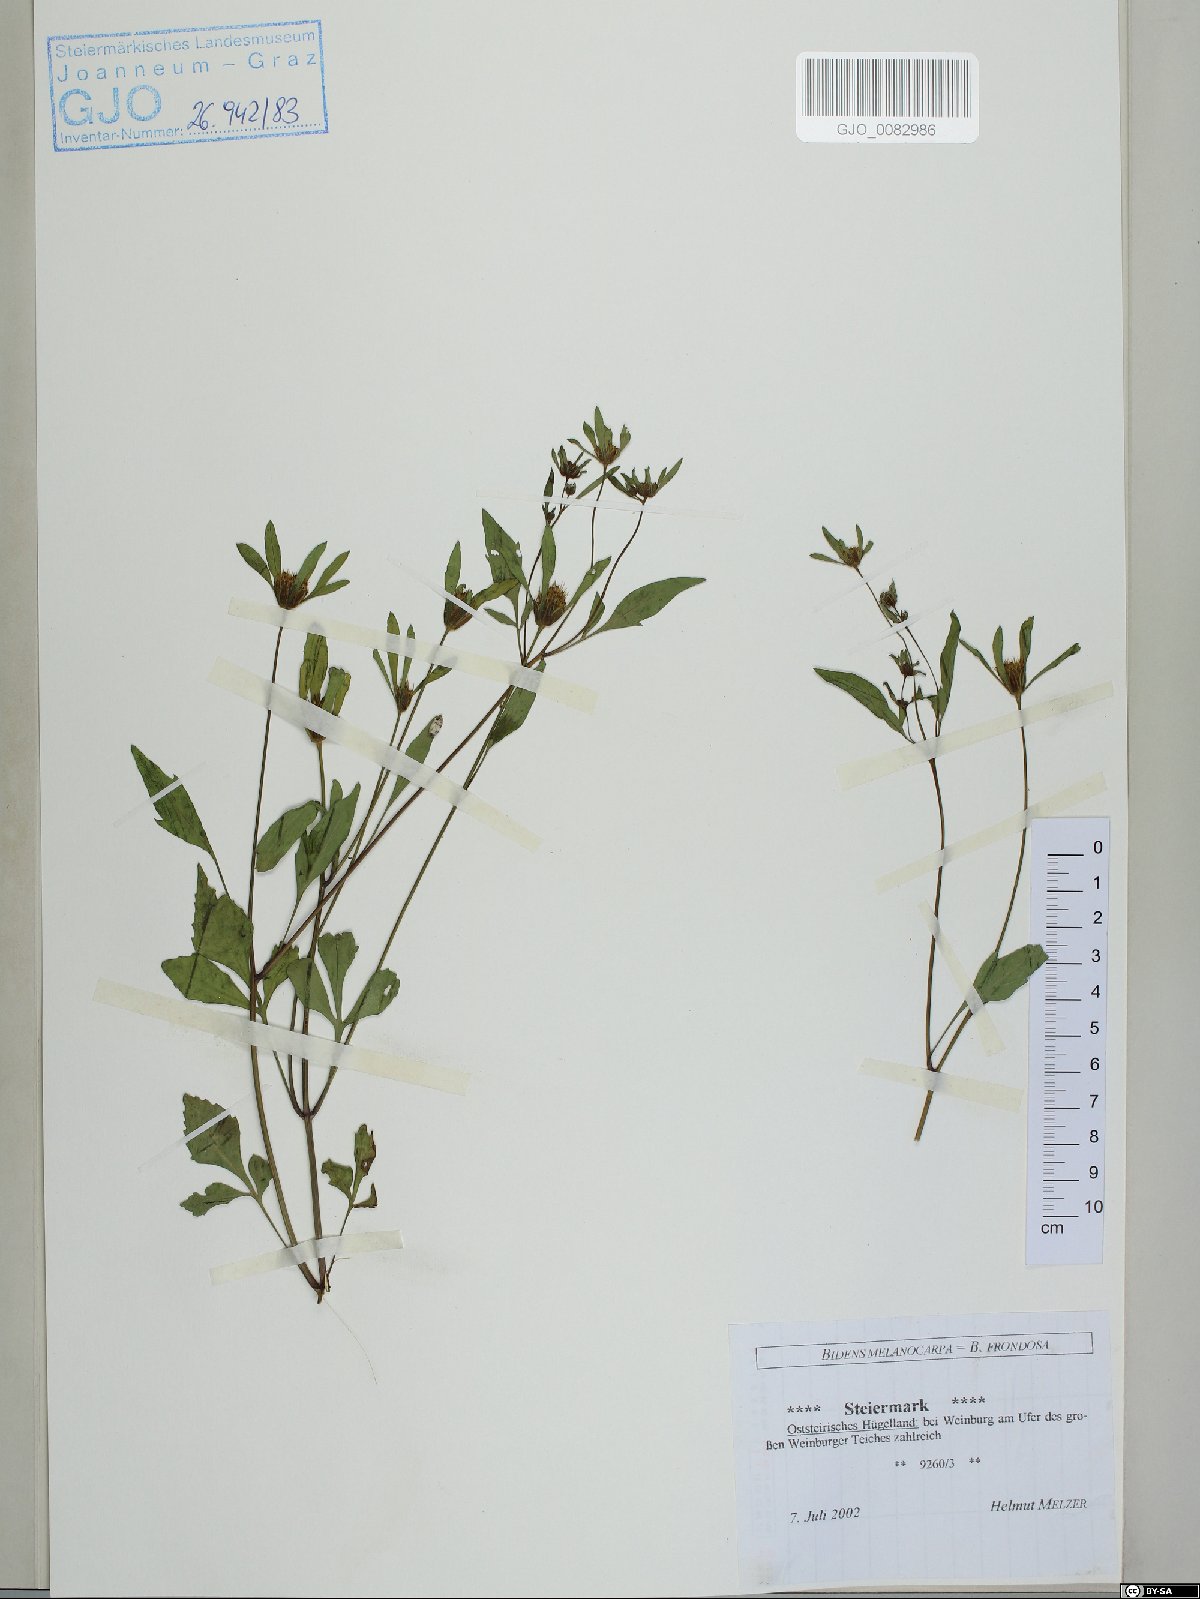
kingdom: Plantae
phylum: Tracheophyta
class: Magnoliopsida
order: Asterales
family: Asteraceae
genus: Bidens
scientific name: Bidens frondosa
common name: Beggarticks
